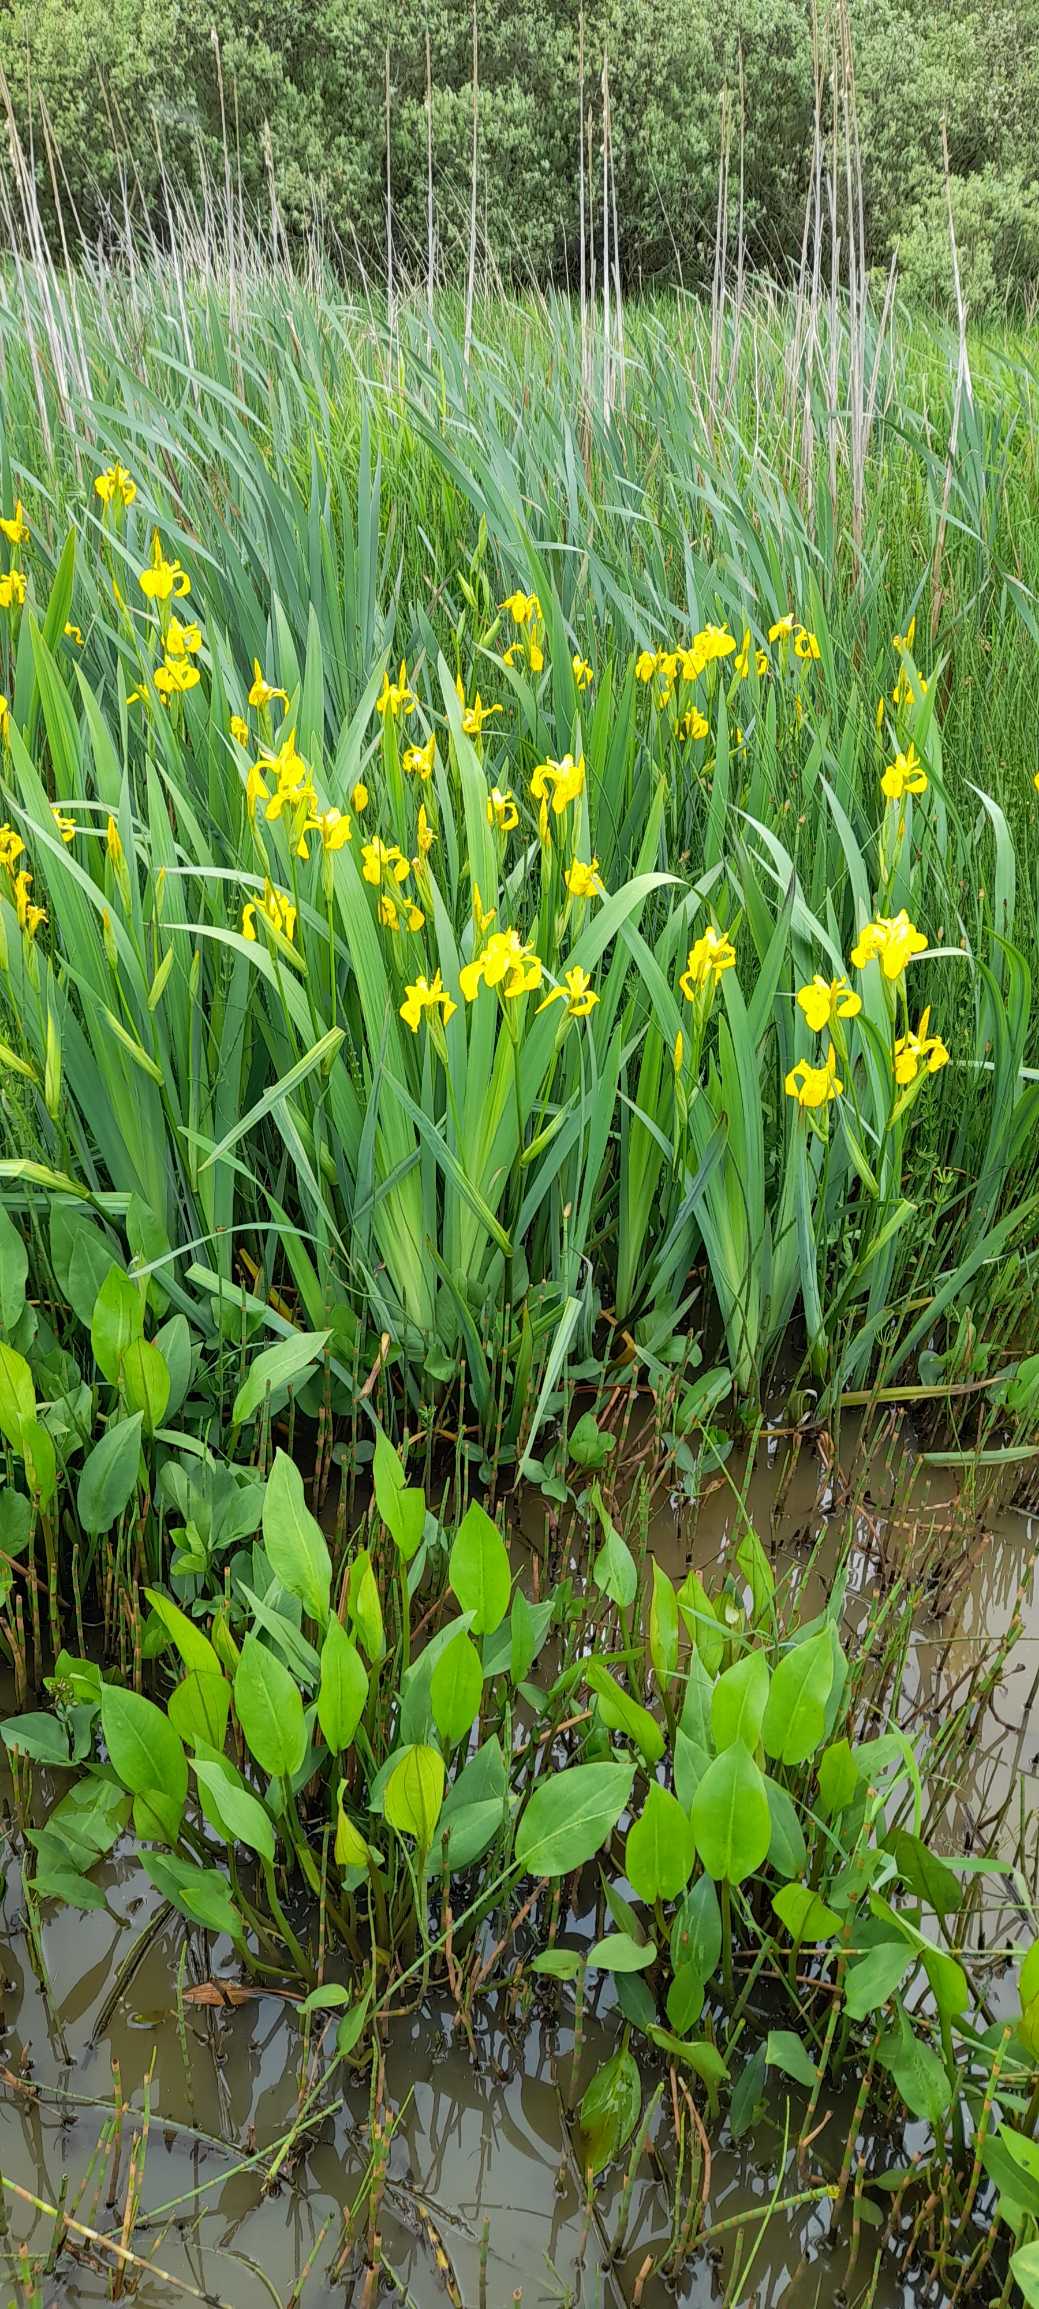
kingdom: Plantae
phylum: Tracheophyta
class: Liliopsida
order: Asparagales
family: Iridaceae
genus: Iris
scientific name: Iris pseudacorus
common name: Gul iris
